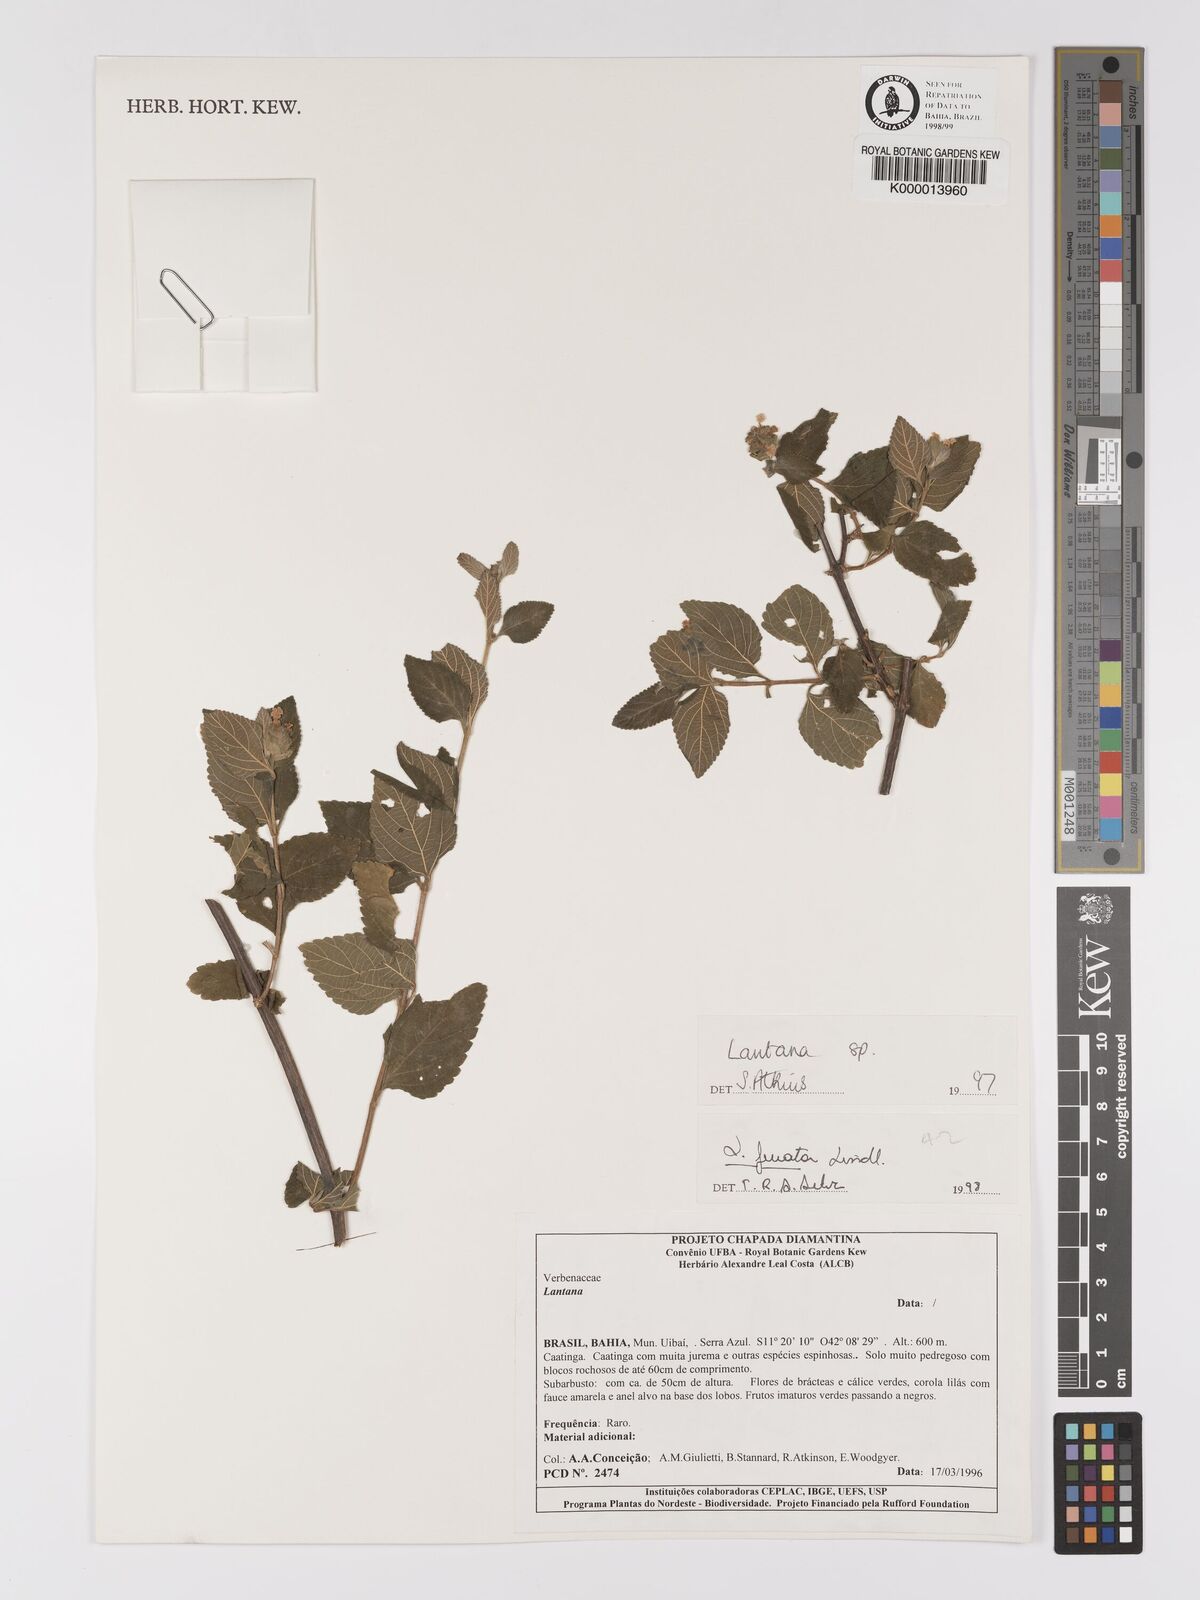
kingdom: Plantae
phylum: Tracheophyta
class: Magnoliopsida
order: Lamiales
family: Verbenaceae
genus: Lantana
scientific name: Lantana fucata
